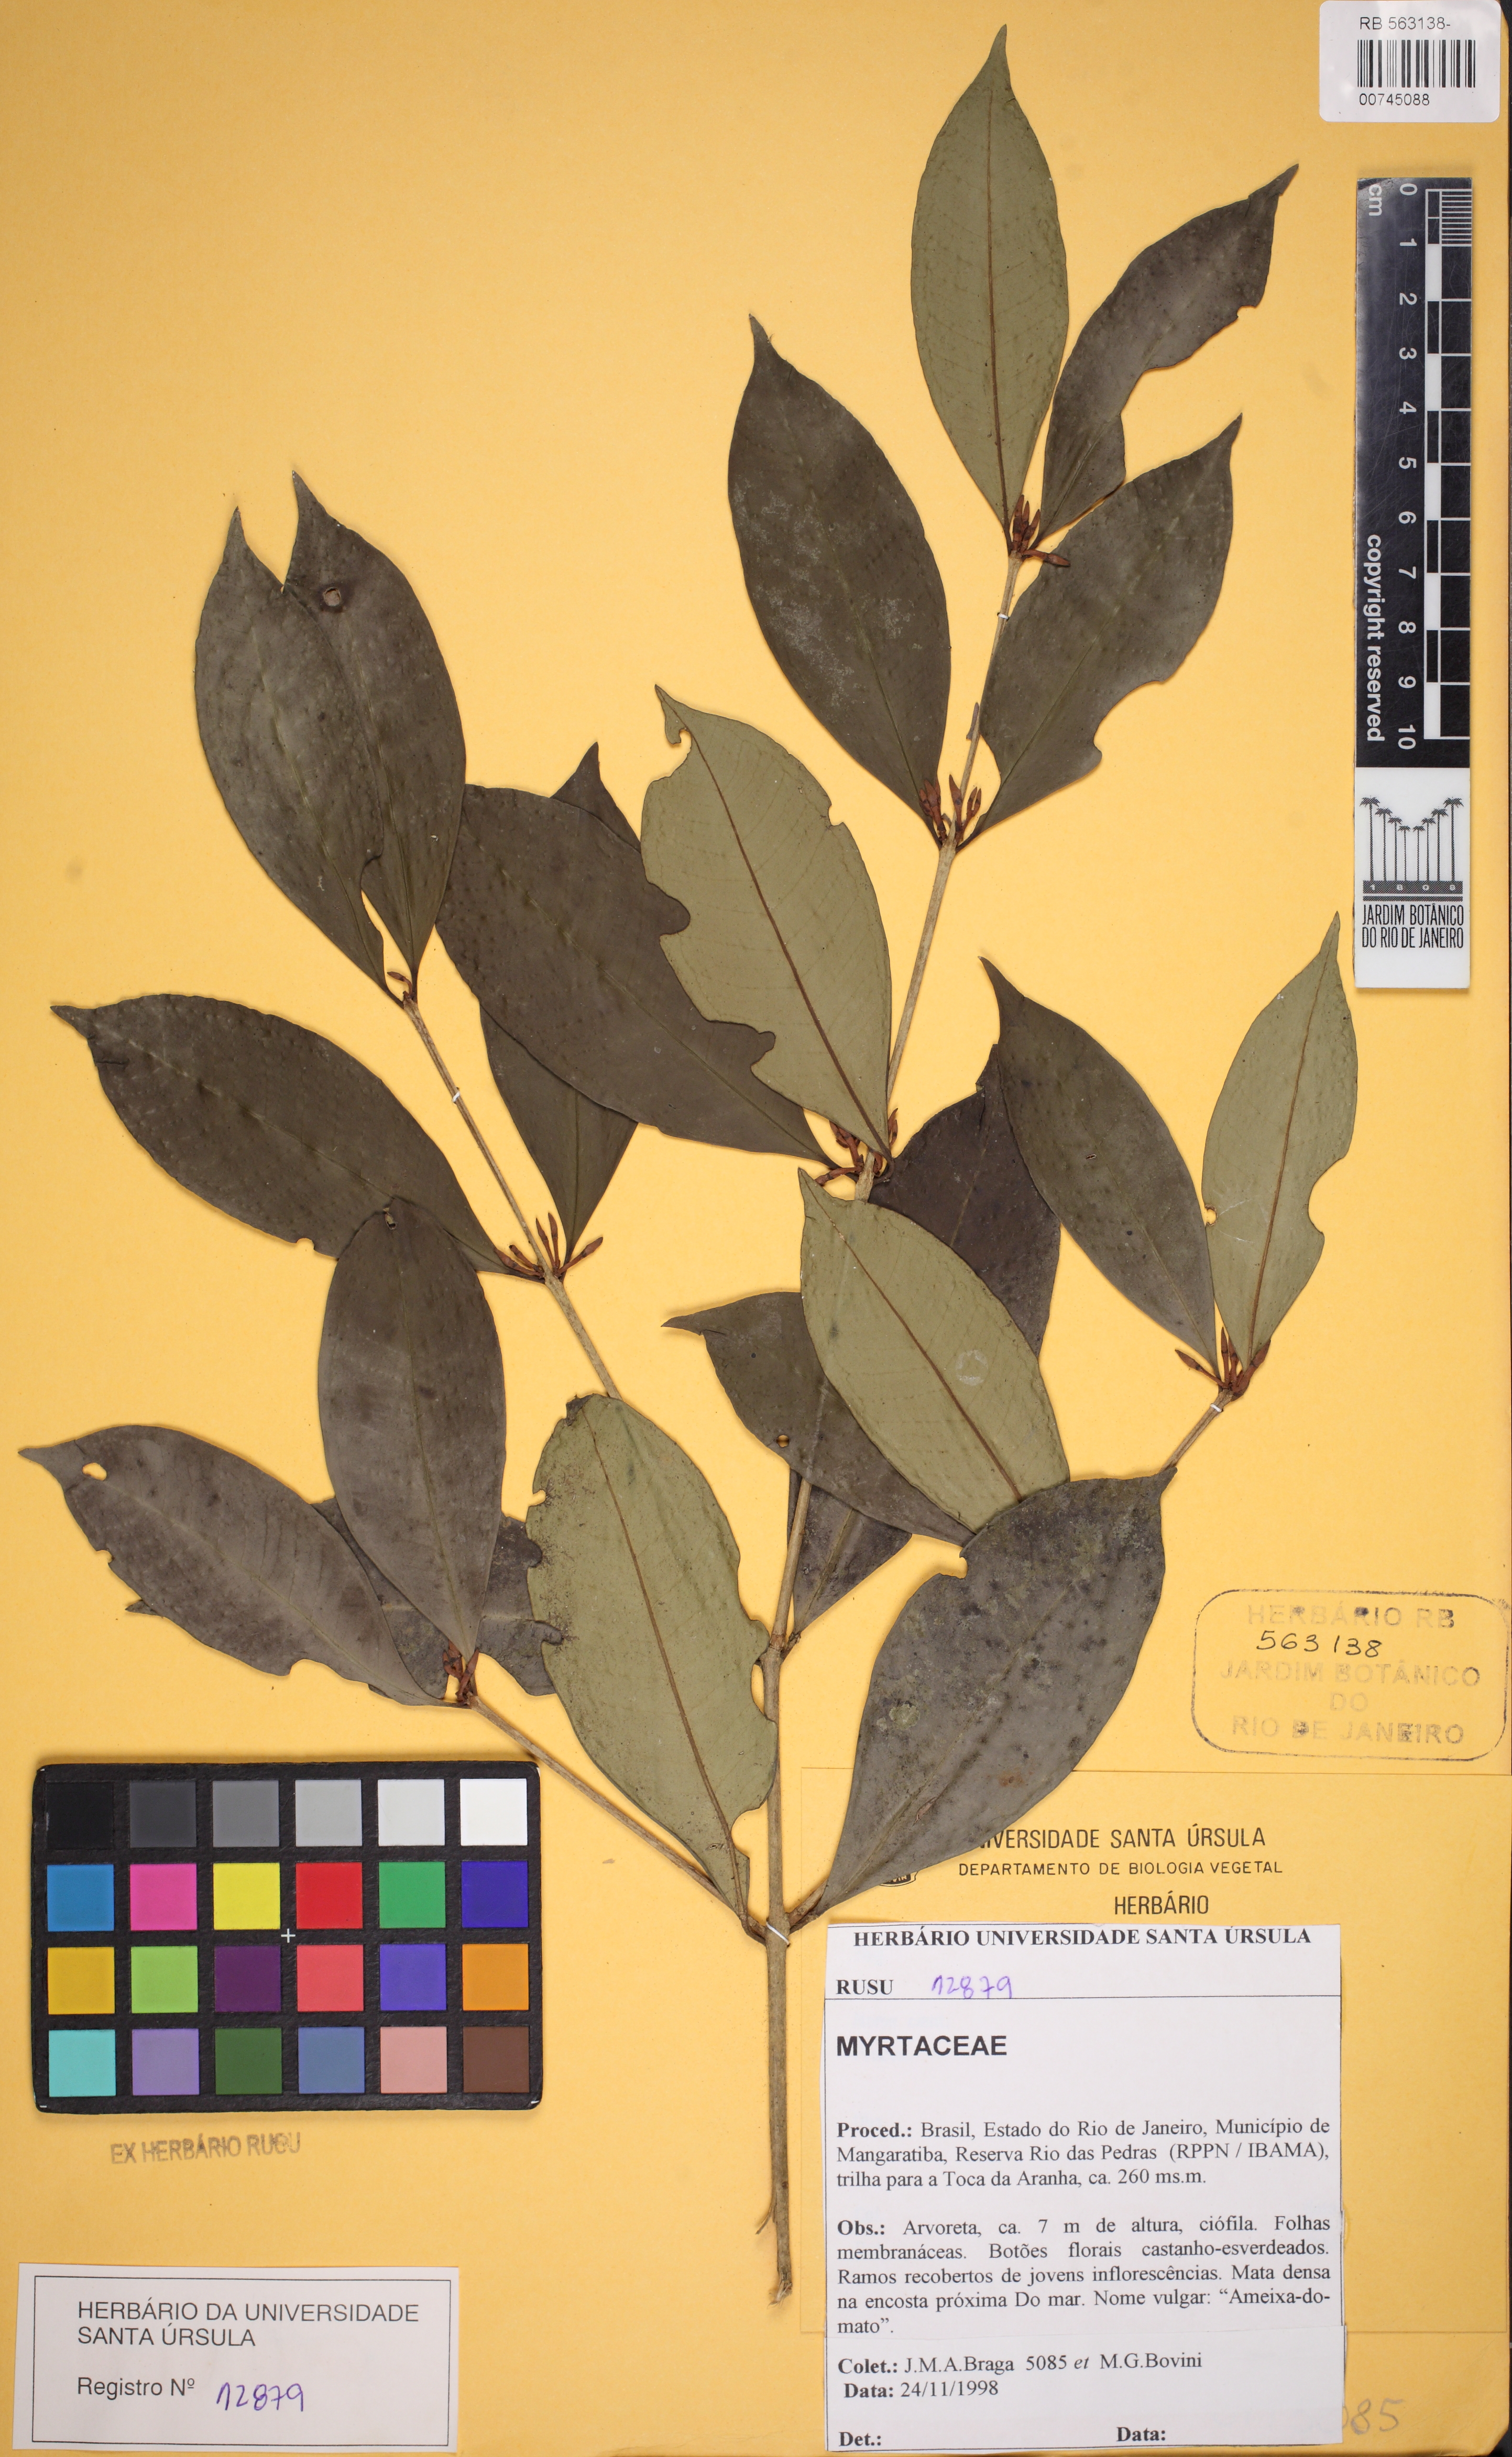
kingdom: Plantae
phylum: Tracheophyta
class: Magnoliopsida
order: Myrtales
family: Myrtaceae
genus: Eugenia
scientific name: Eugenia longimitra
